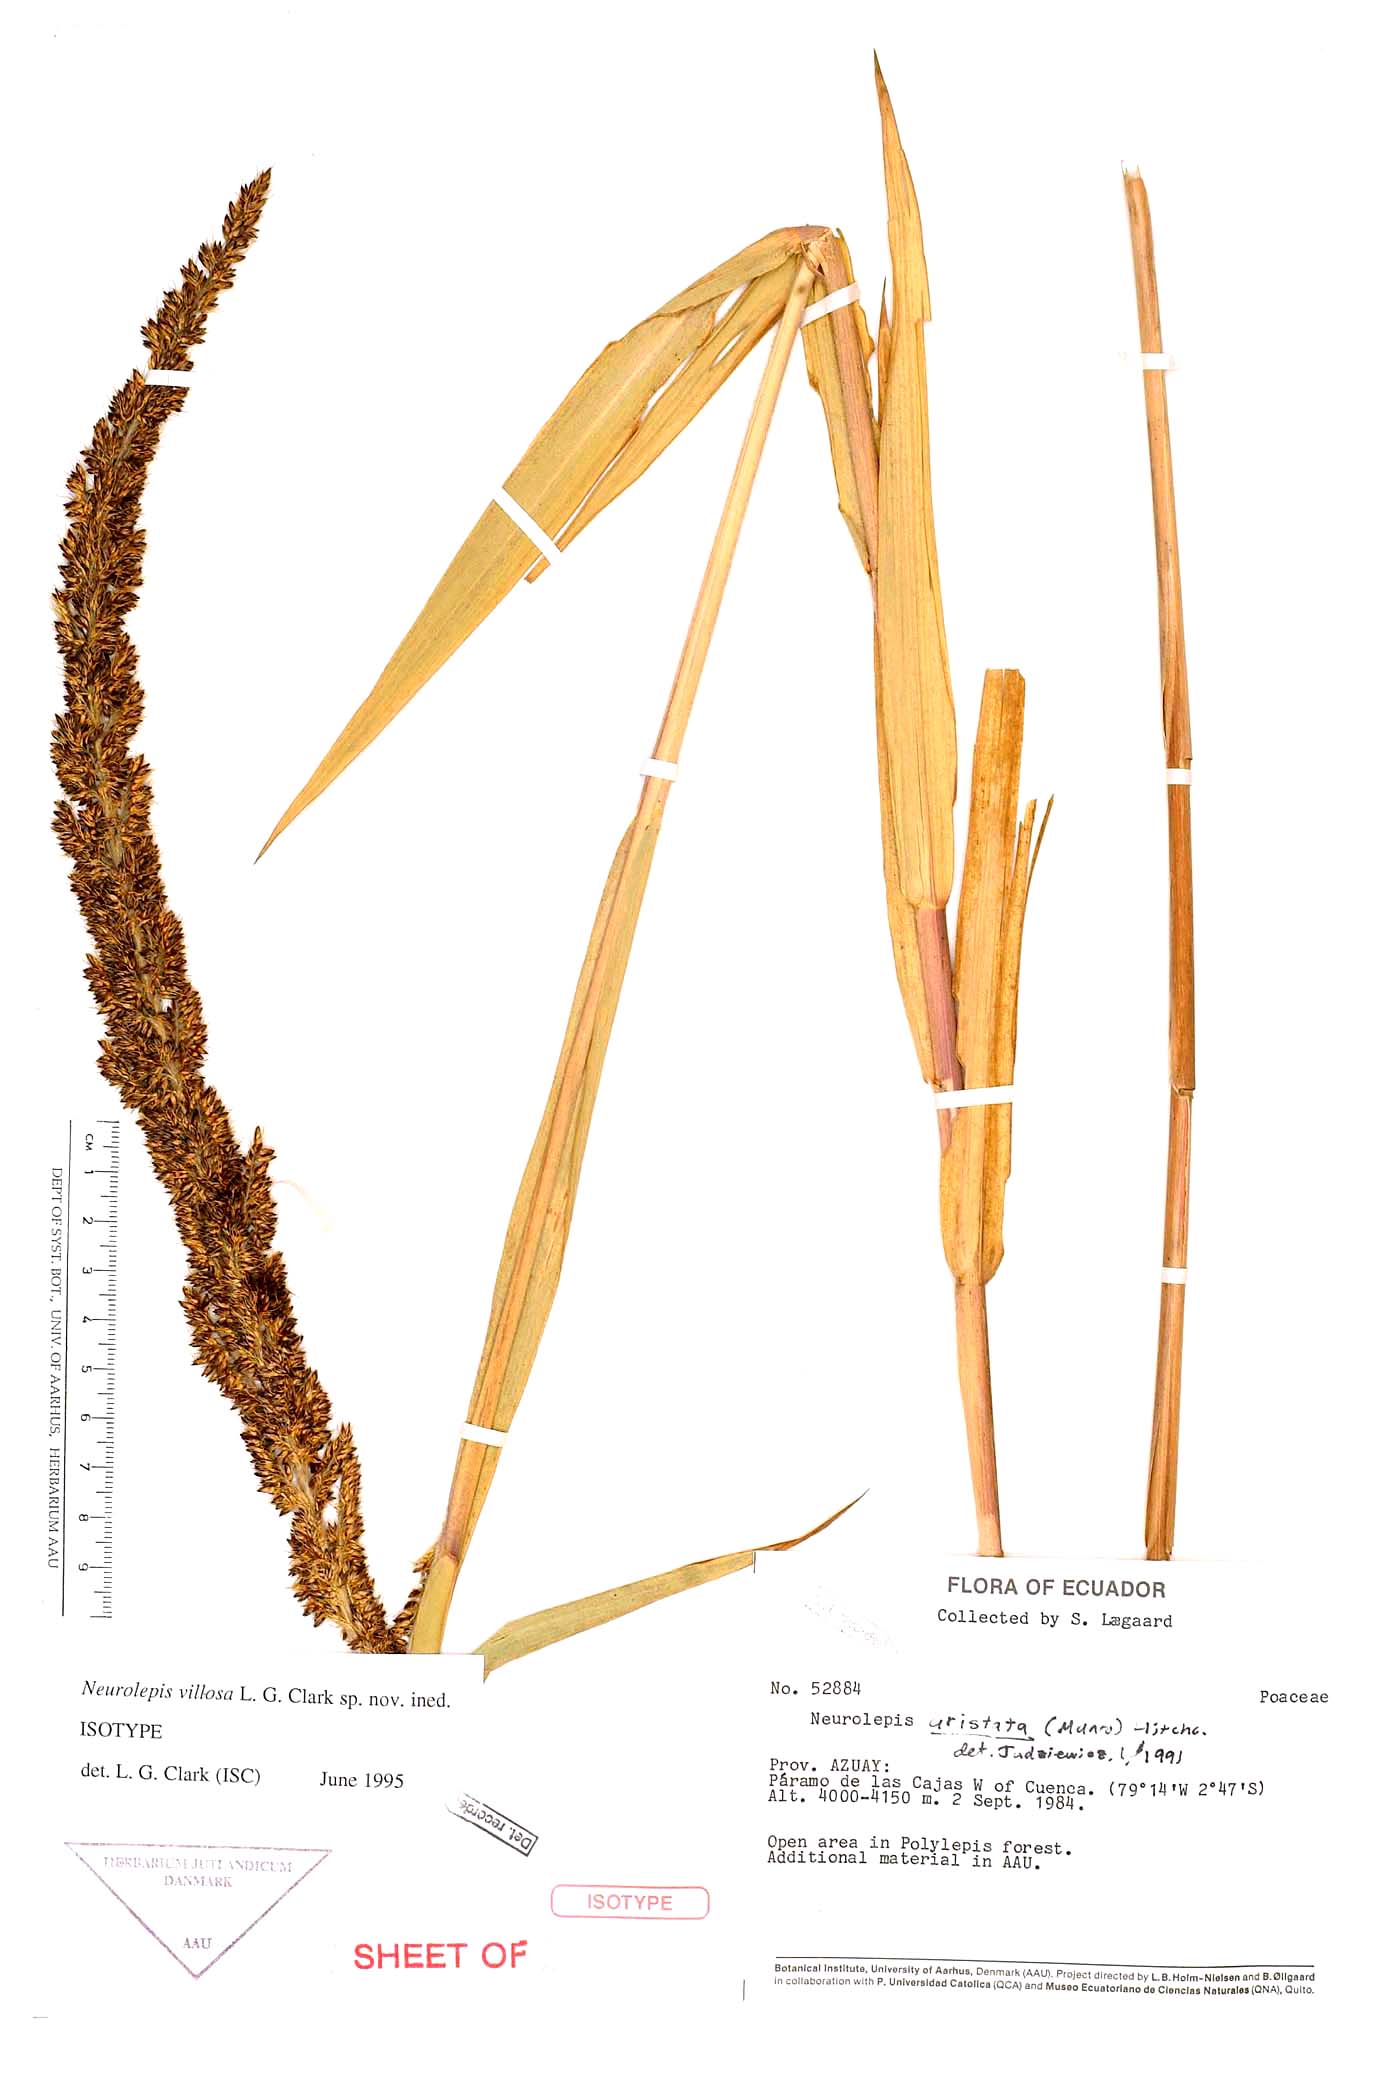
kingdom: Plantae
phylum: Tracheophyta
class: Liliopsida
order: Poales
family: Poaceae
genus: Chusquea
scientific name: Chusquea villosa
